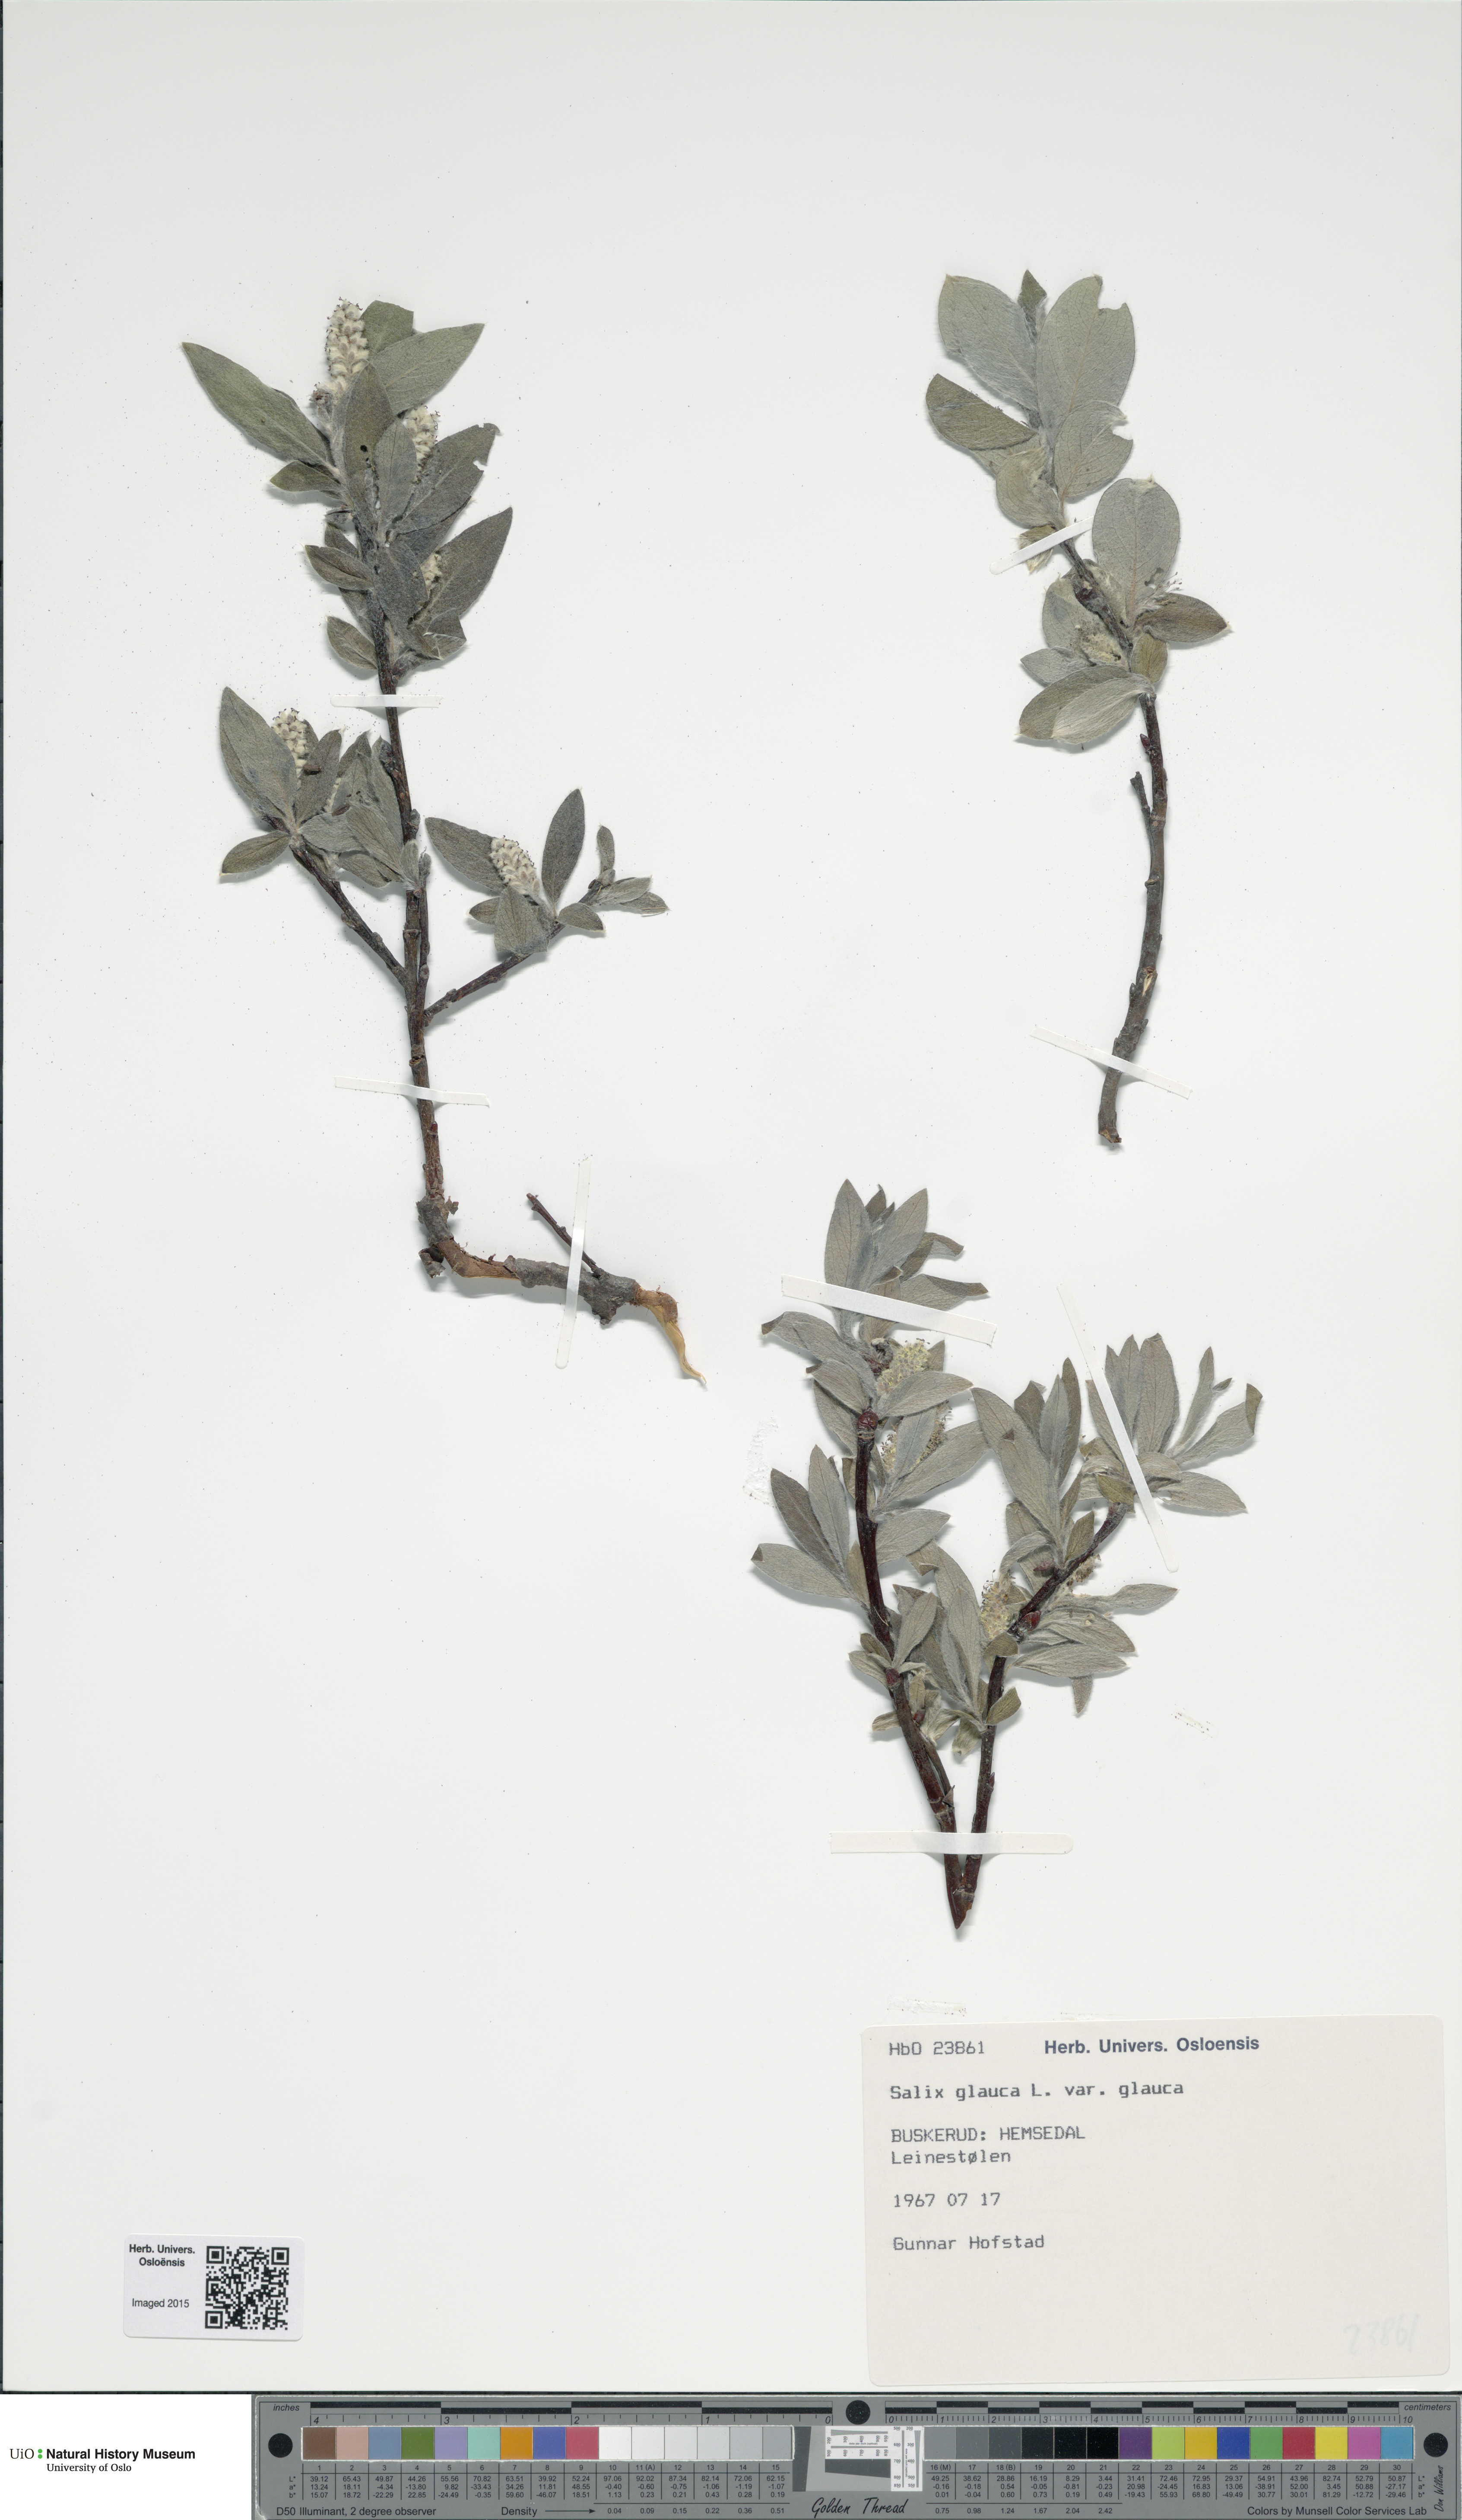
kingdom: Plantae
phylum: Tracheophyta
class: Magnoliopsida
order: Malpighiales
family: Salicaceae
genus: Salix
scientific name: Salix glauca
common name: Glaucous willow
